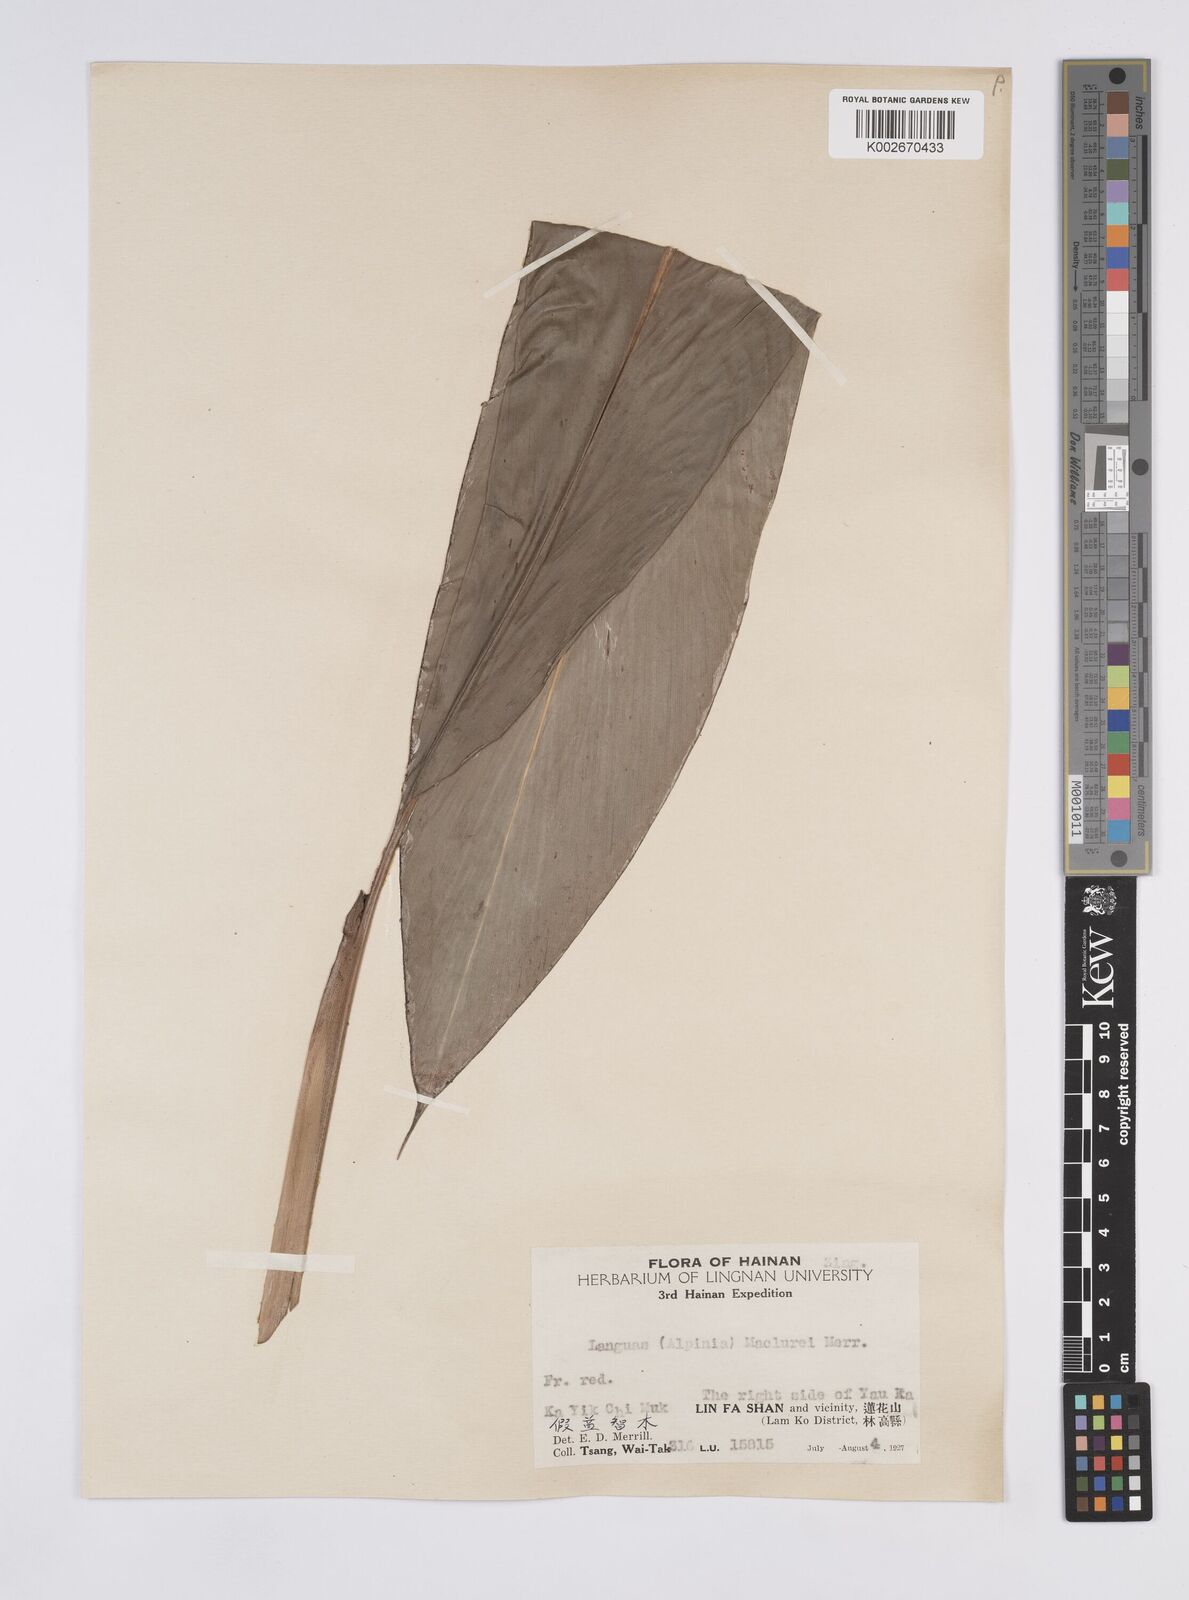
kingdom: Plantae
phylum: Tracheophyta
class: Liliopsida
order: Zingiberales
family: Zingiberaceae
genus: Alpinia
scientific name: Alpinia chinensis
